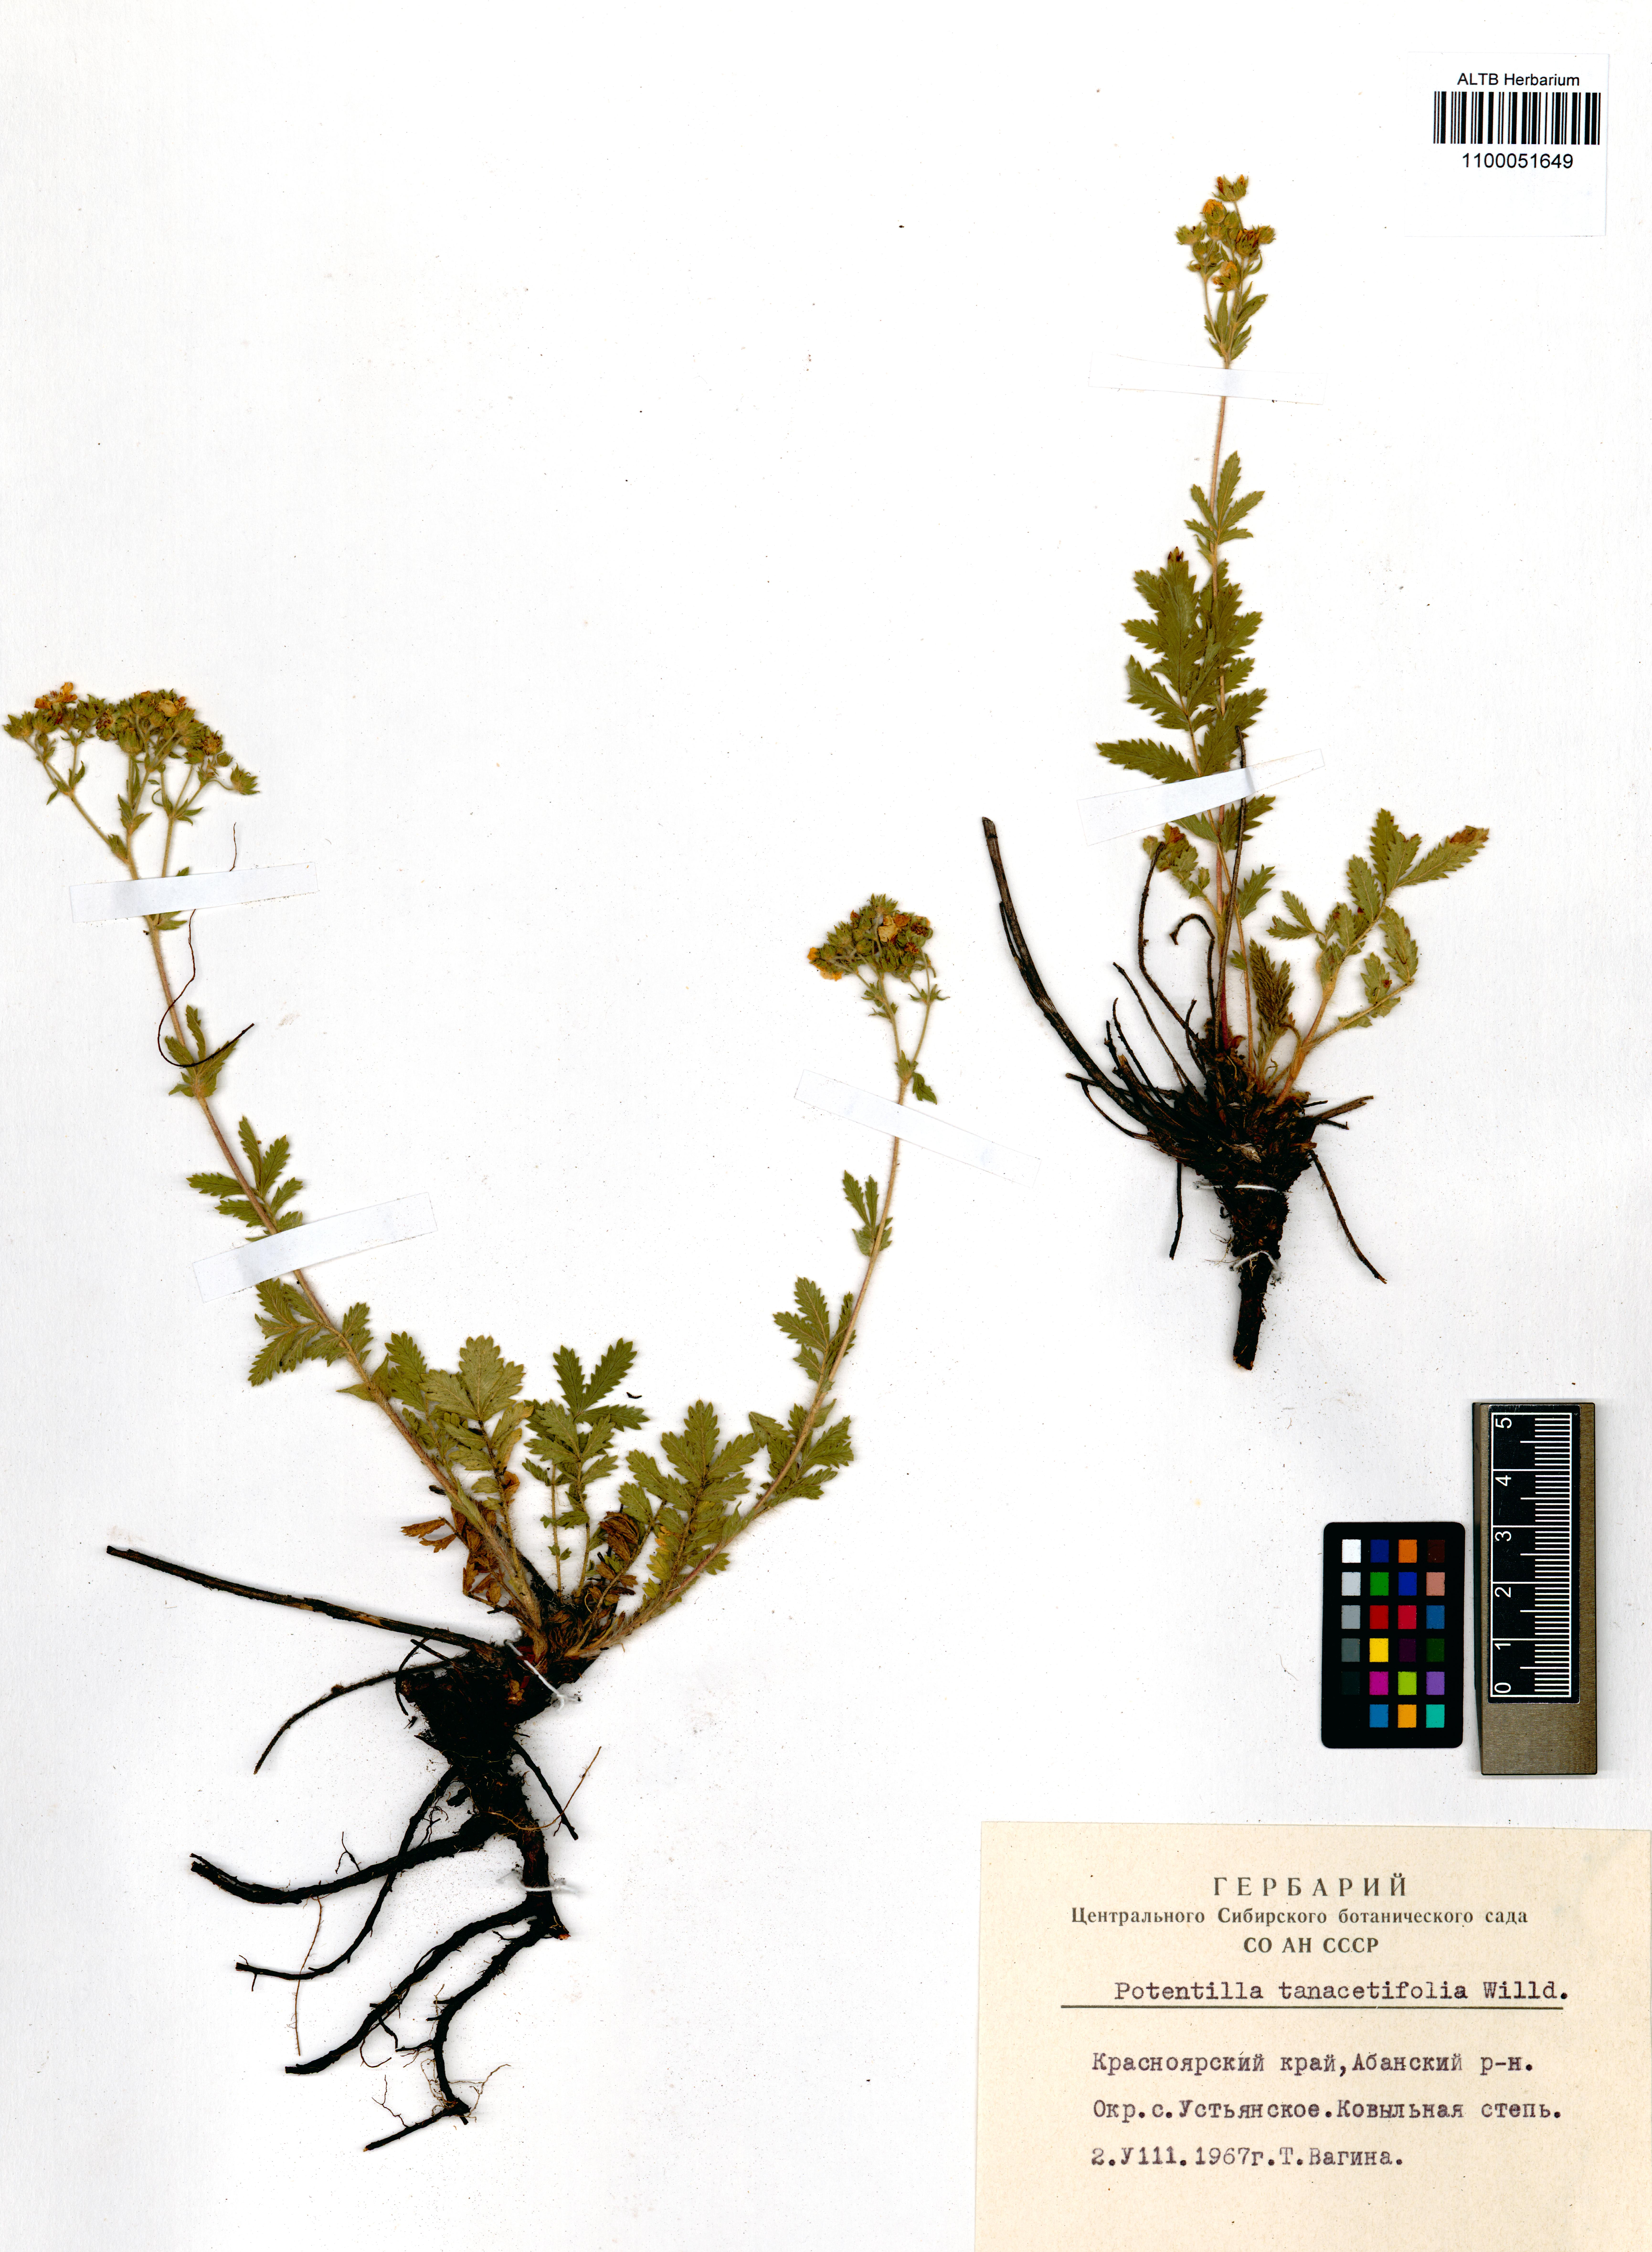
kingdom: Plantae
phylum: Tracheophyta
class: Magnoliopsida
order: Rosales
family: Rosaceae
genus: Potentilla
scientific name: Potentilla tanacetifolia
